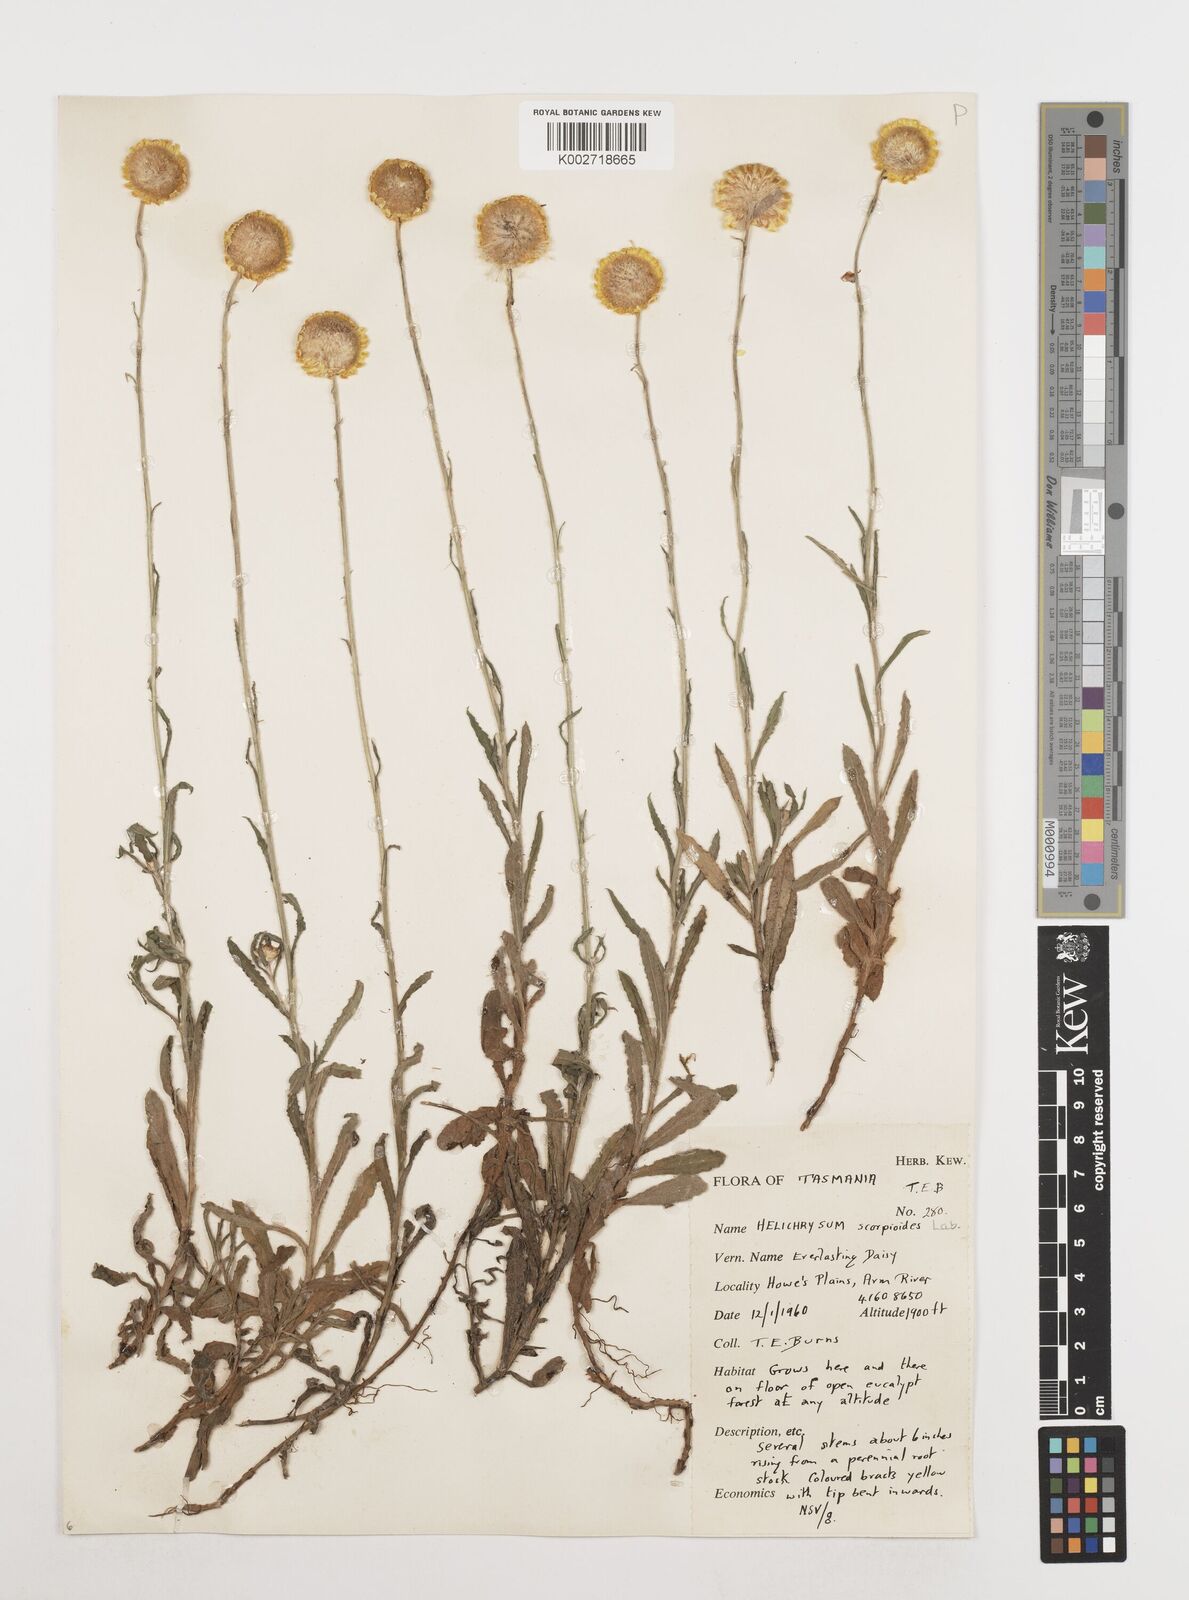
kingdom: Plantae
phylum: Tracheophyta
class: Magnoliopsida
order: Asterales
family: Asteraceae
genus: Coronidium
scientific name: Coronidium scorpioides
